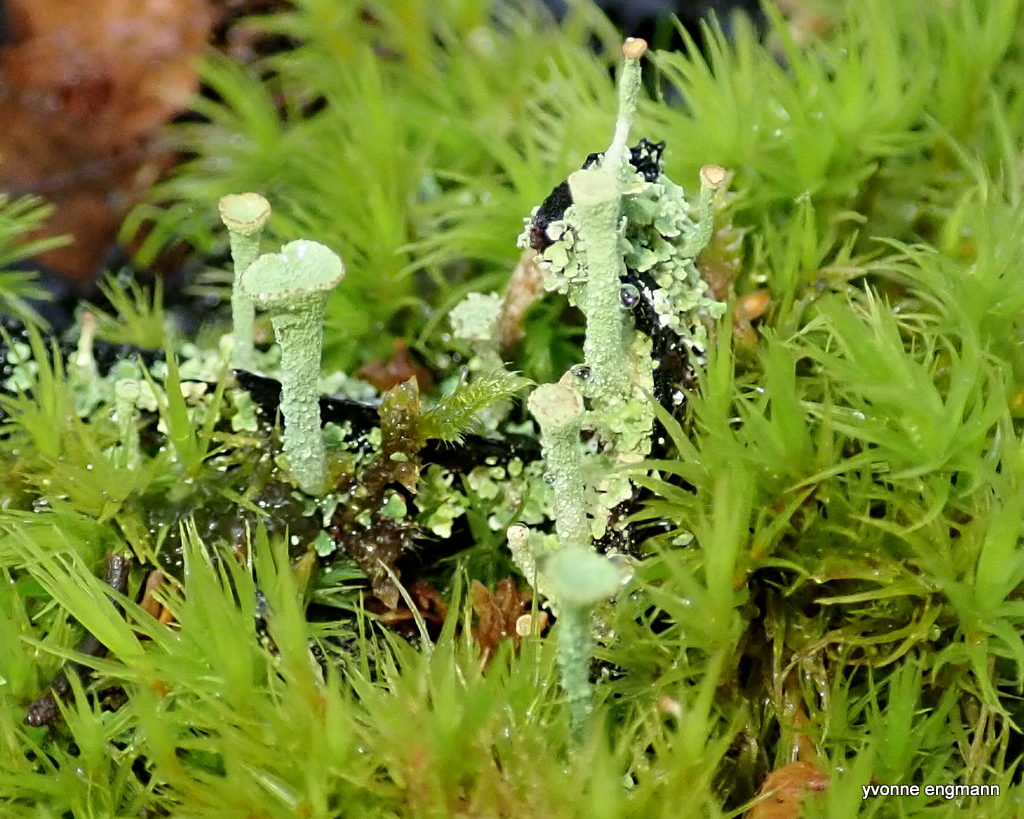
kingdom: Fungi
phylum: Ascomycota
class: Lecanoromycetes
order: Lecanorales
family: Cladoniaceae
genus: Cladonia
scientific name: Cladonia
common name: brungrøn bægerlav
